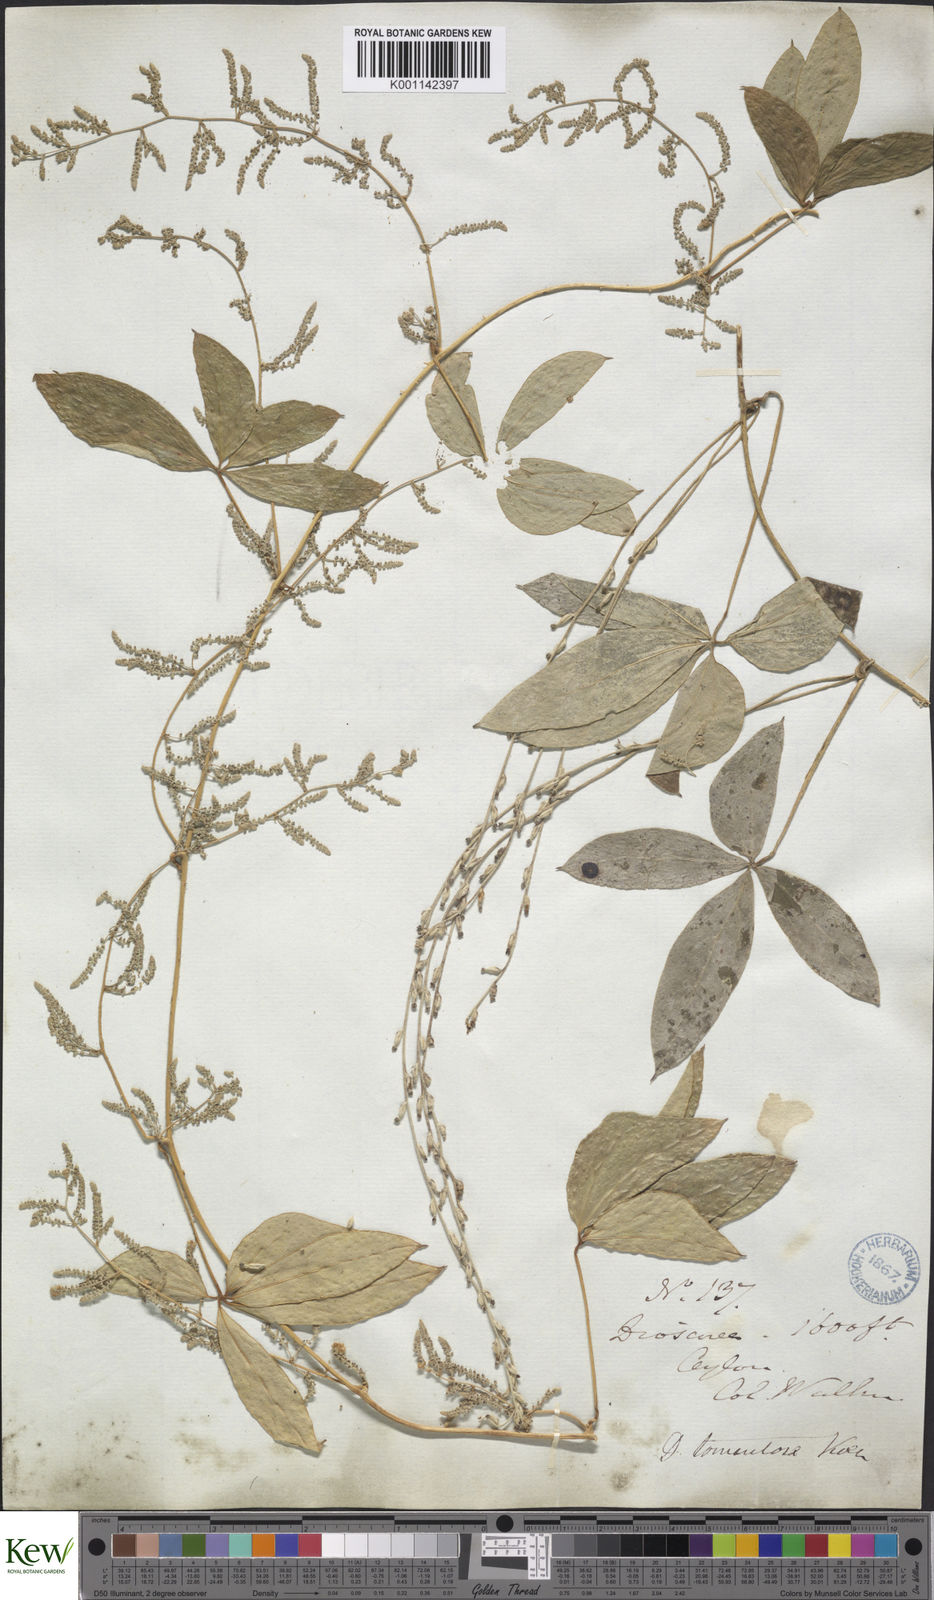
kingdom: Plantae
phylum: Tracheophyta
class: Liliopsida
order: Dioscoreales
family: Dioscoreaceae
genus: Dioscorea
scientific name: Dioscorea
